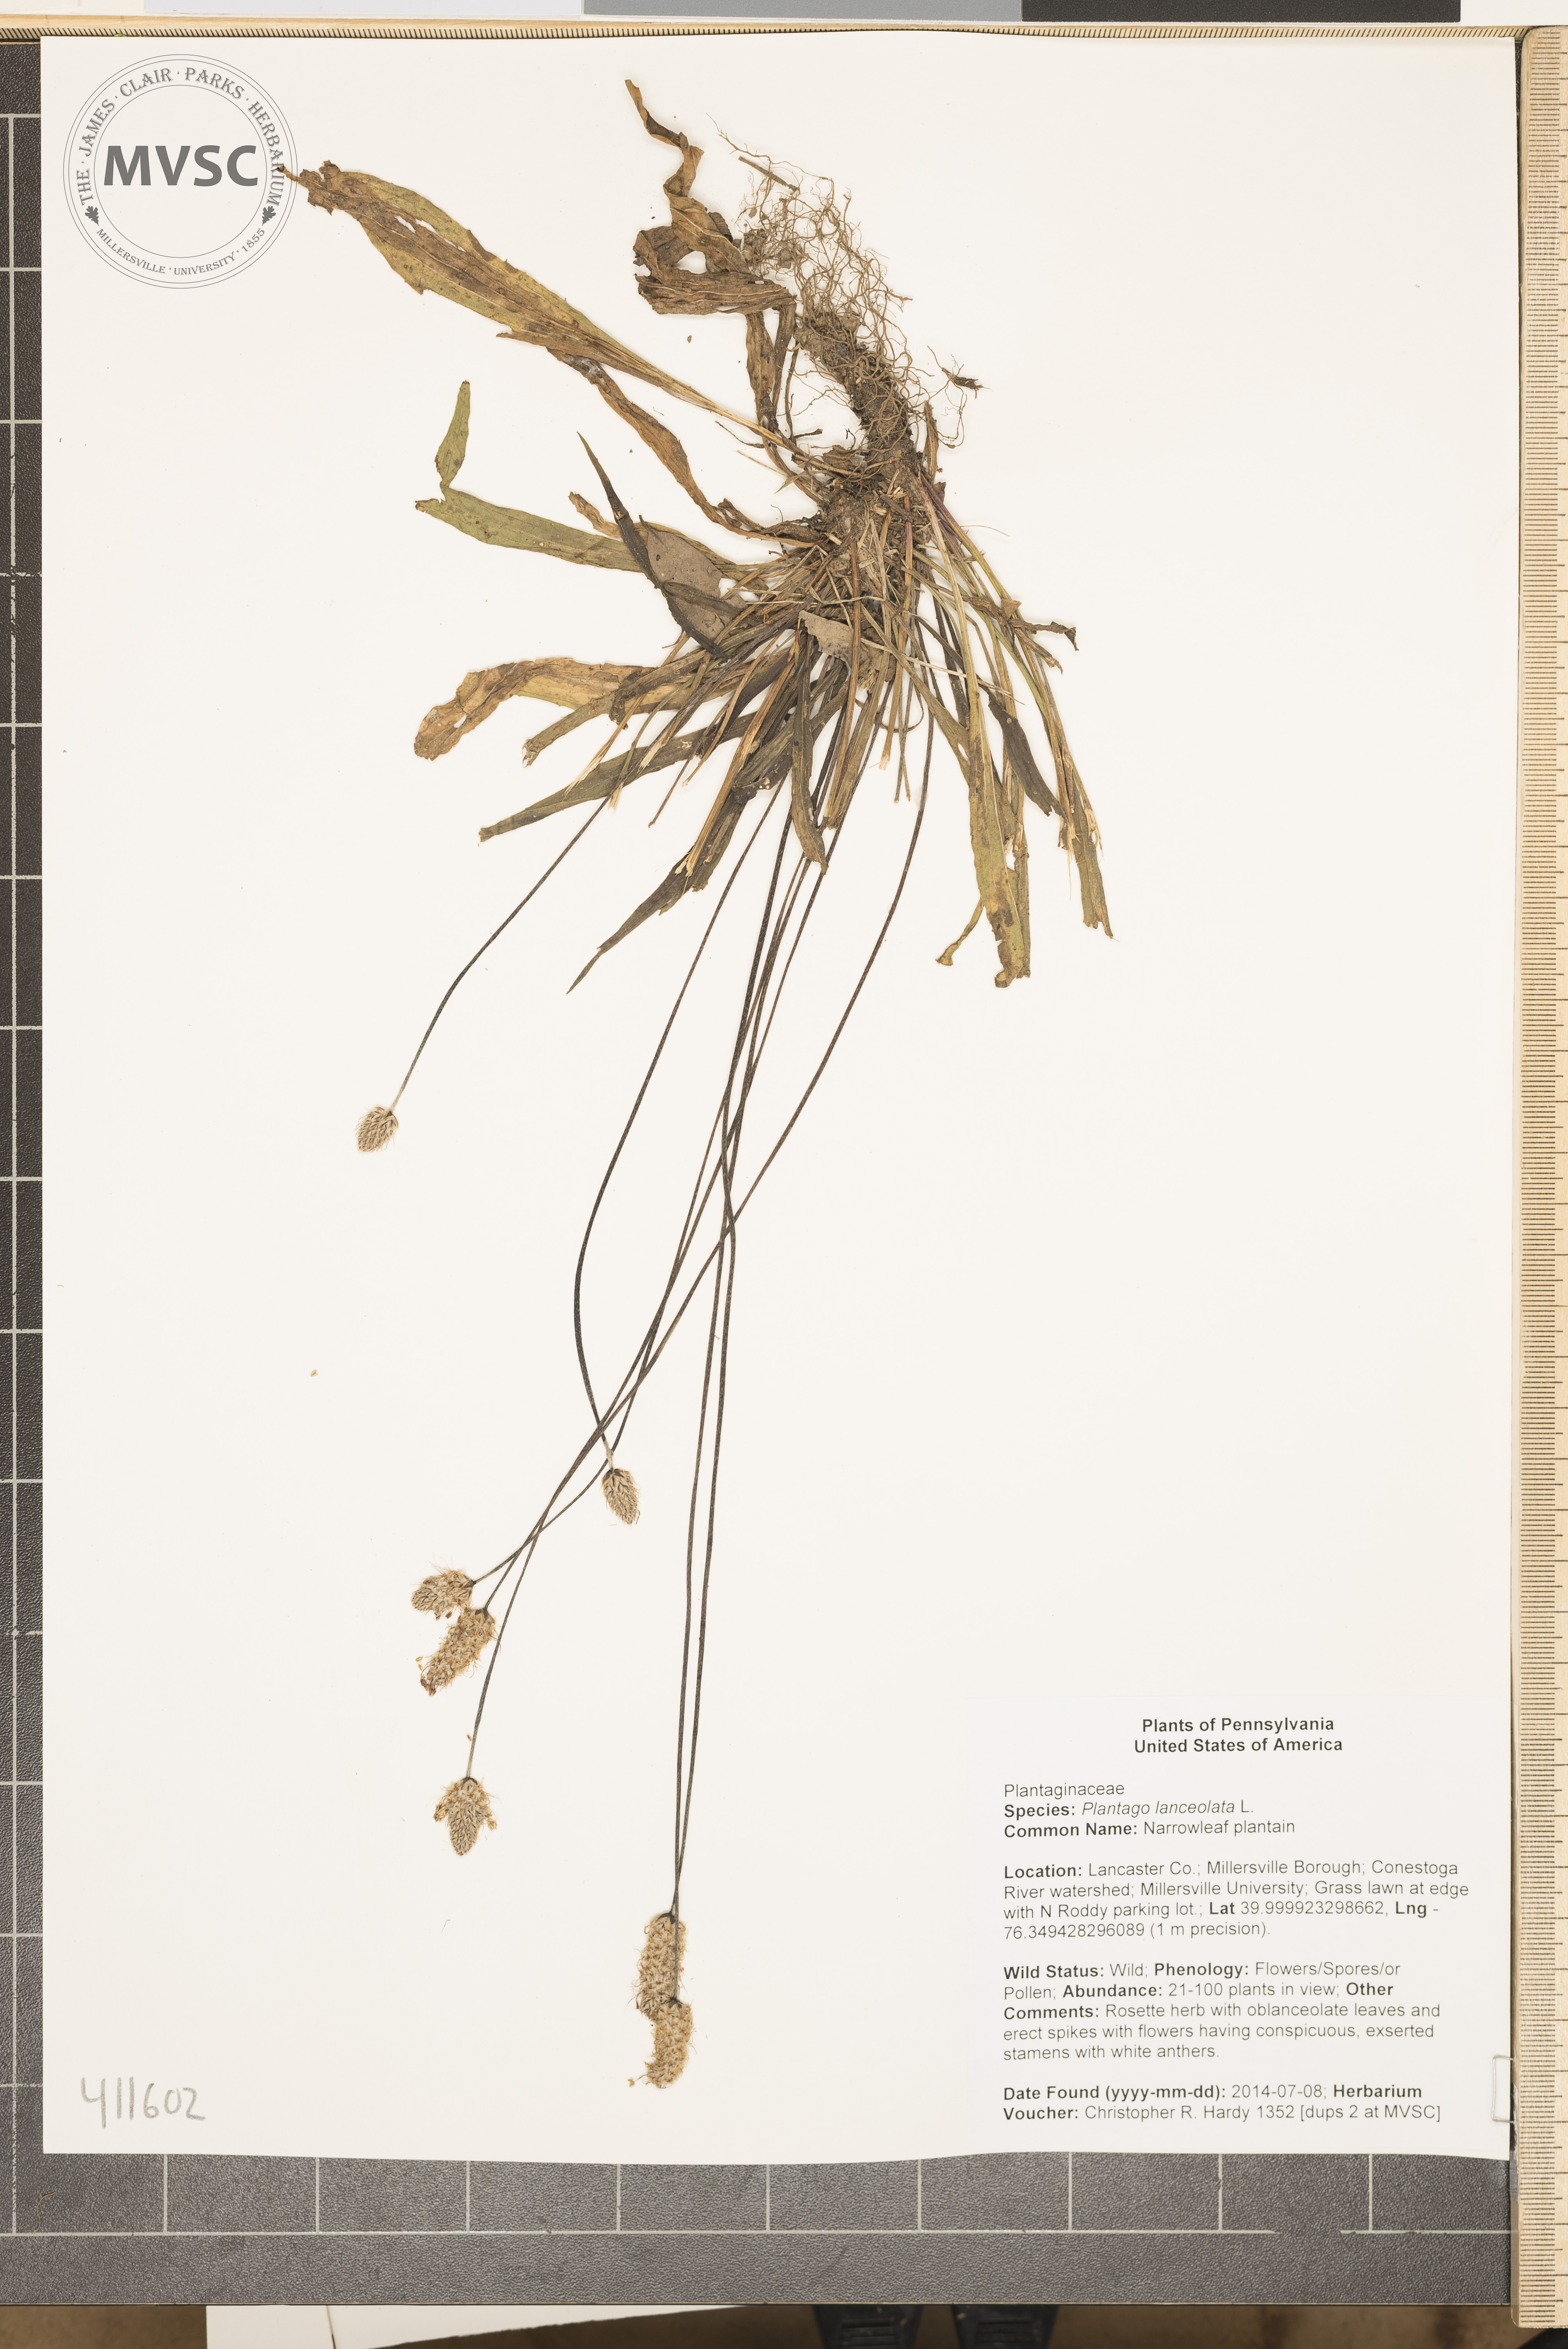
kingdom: Plantae
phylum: Tracheophyta
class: Magnoliopsida
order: Lamiales
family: Plantaginaceae
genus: Plantago
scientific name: Plantago lanceolata
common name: Narrowleaf plantain
